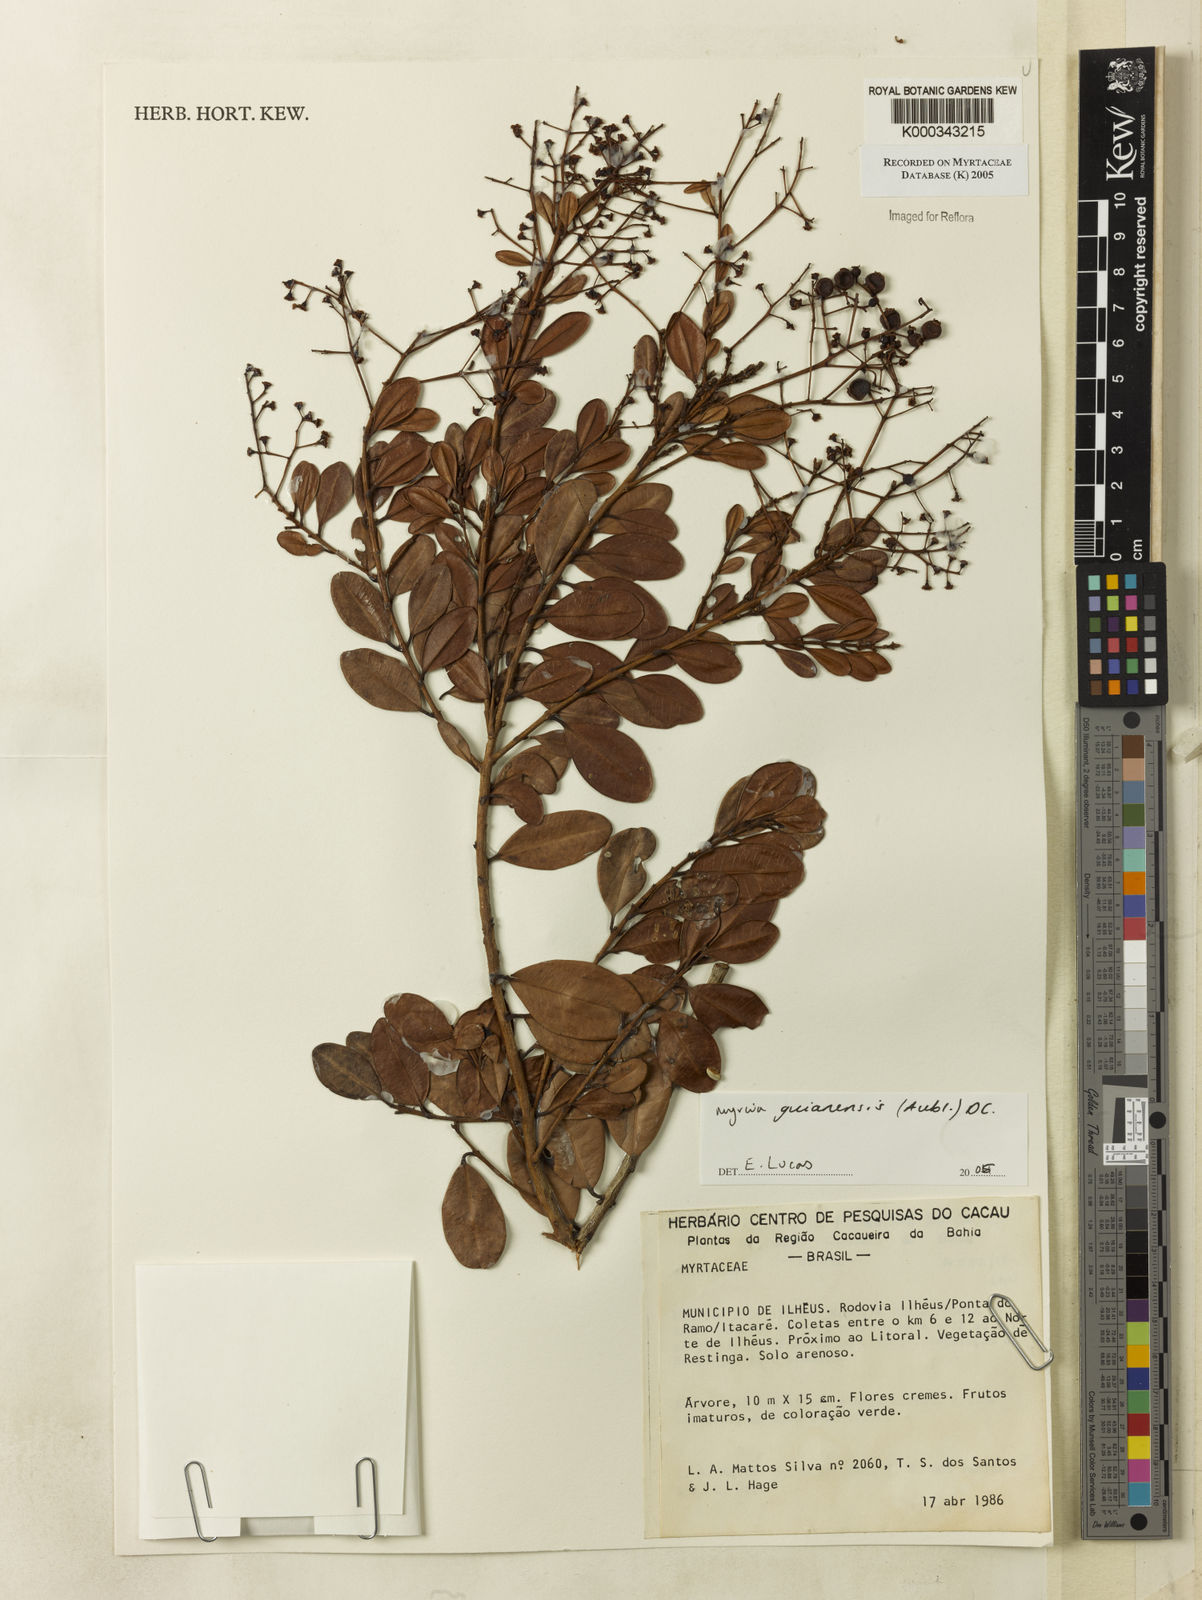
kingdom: Plantae
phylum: Tracheophyta
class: Magnoliopsida
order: Myrtales
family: Myrtaceae
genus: Myrcia
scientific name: Myrcia guianensis
